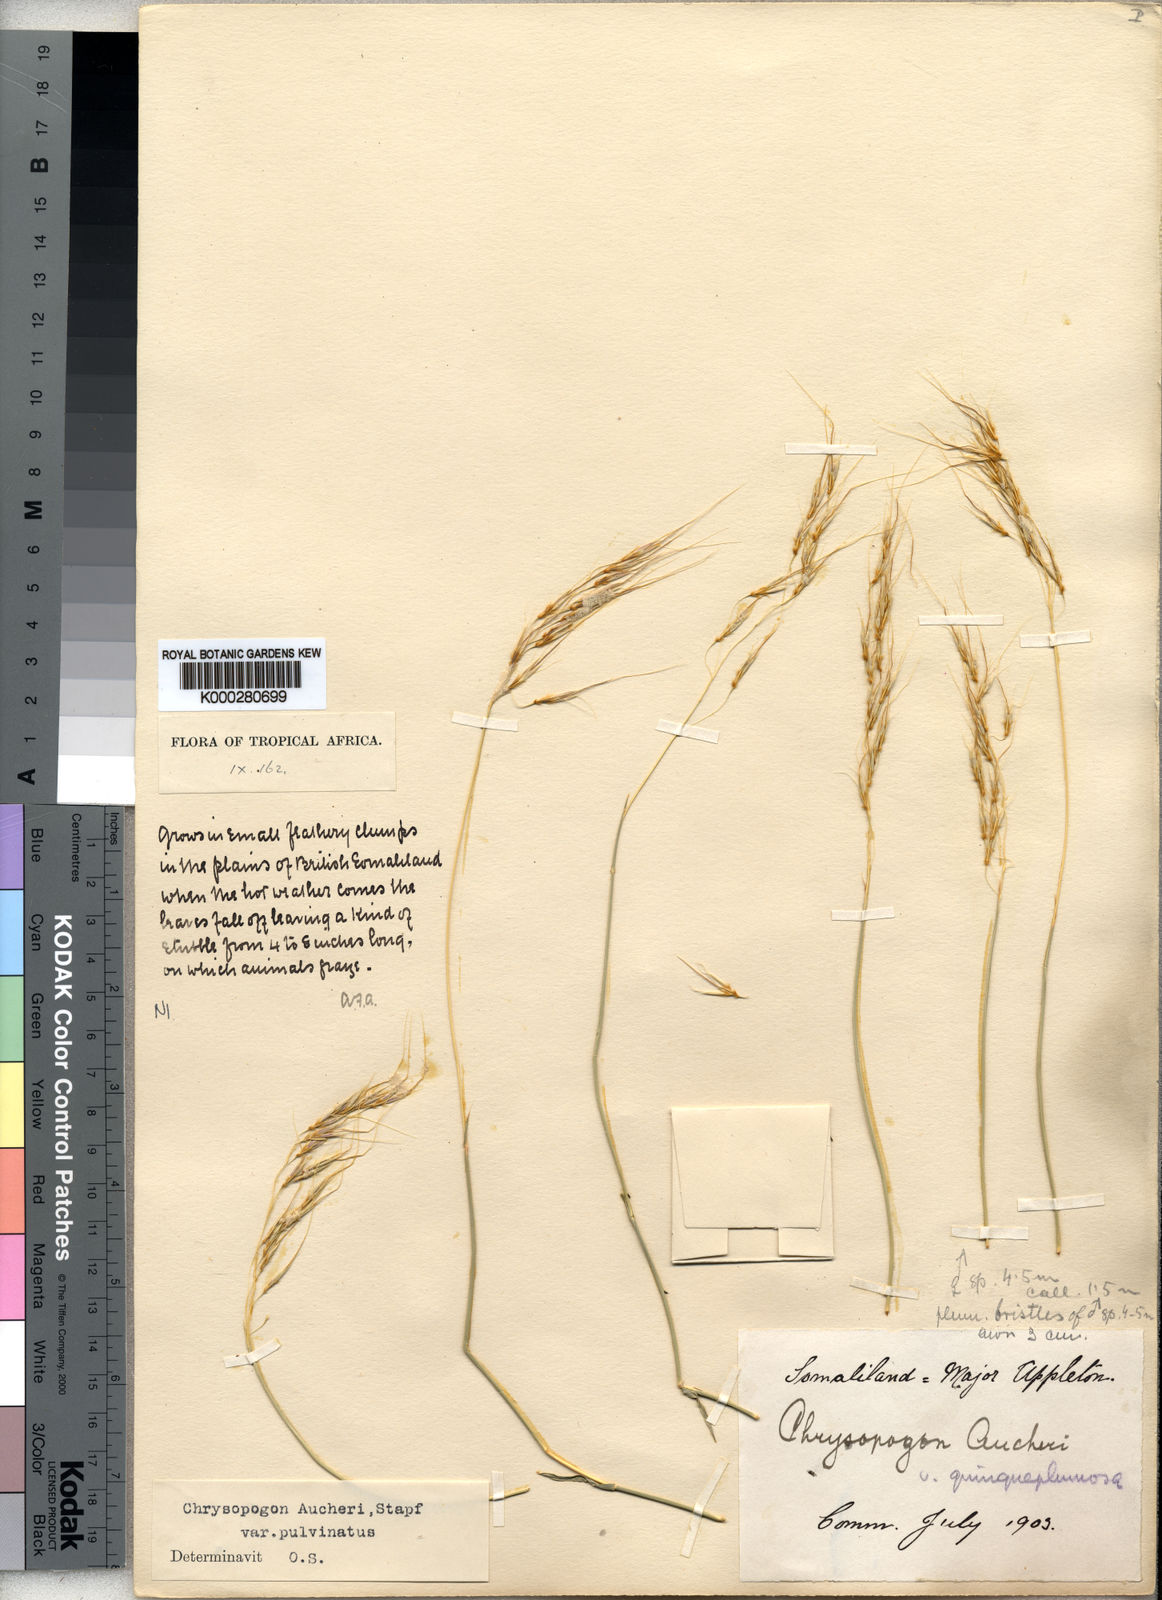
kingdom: Plantae
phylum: Tracheophyta
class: Liliopsida
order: Poales
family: Poaceae
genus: Chrysopogon
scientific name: Chrysopogon plumulosus
